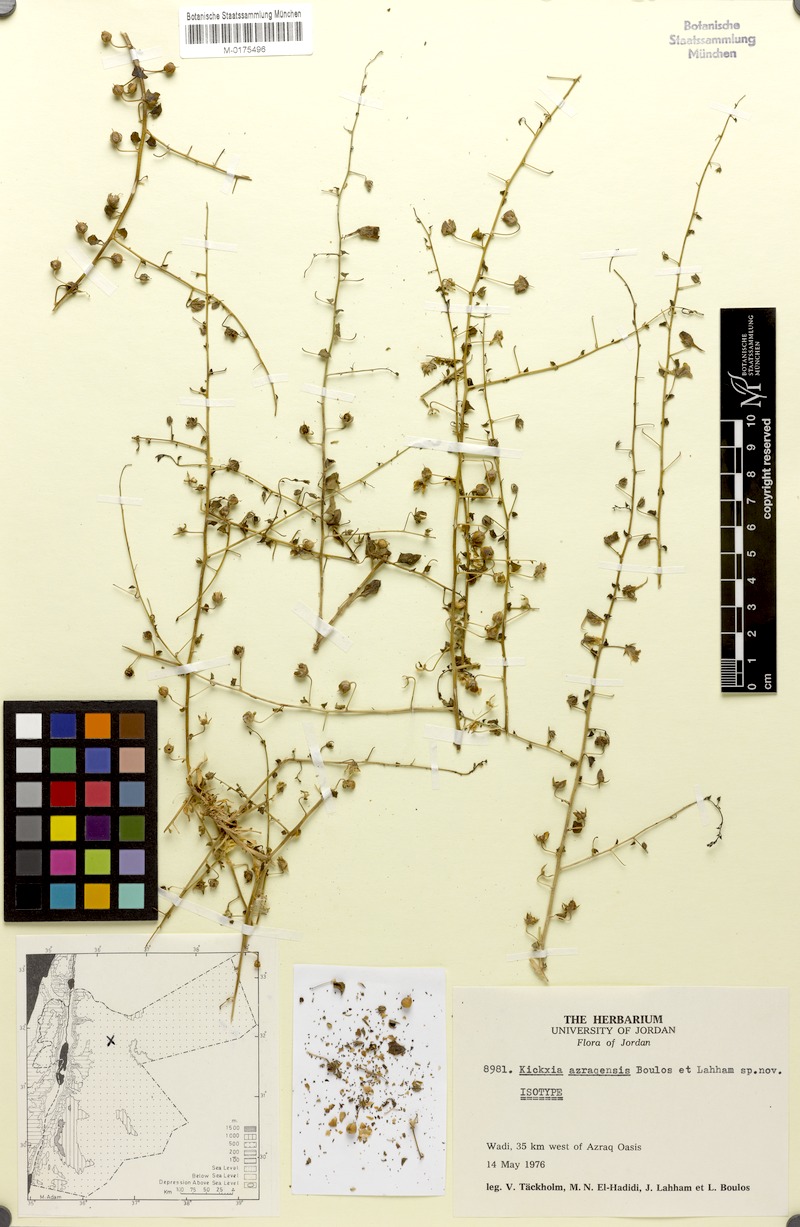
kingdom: Plantae
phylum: Tracheophyta
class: Magnoliopsida
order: Lamiales
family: Plantaginaceae
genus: Nanorrhinum
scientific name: Nanorrhinum azraqense
